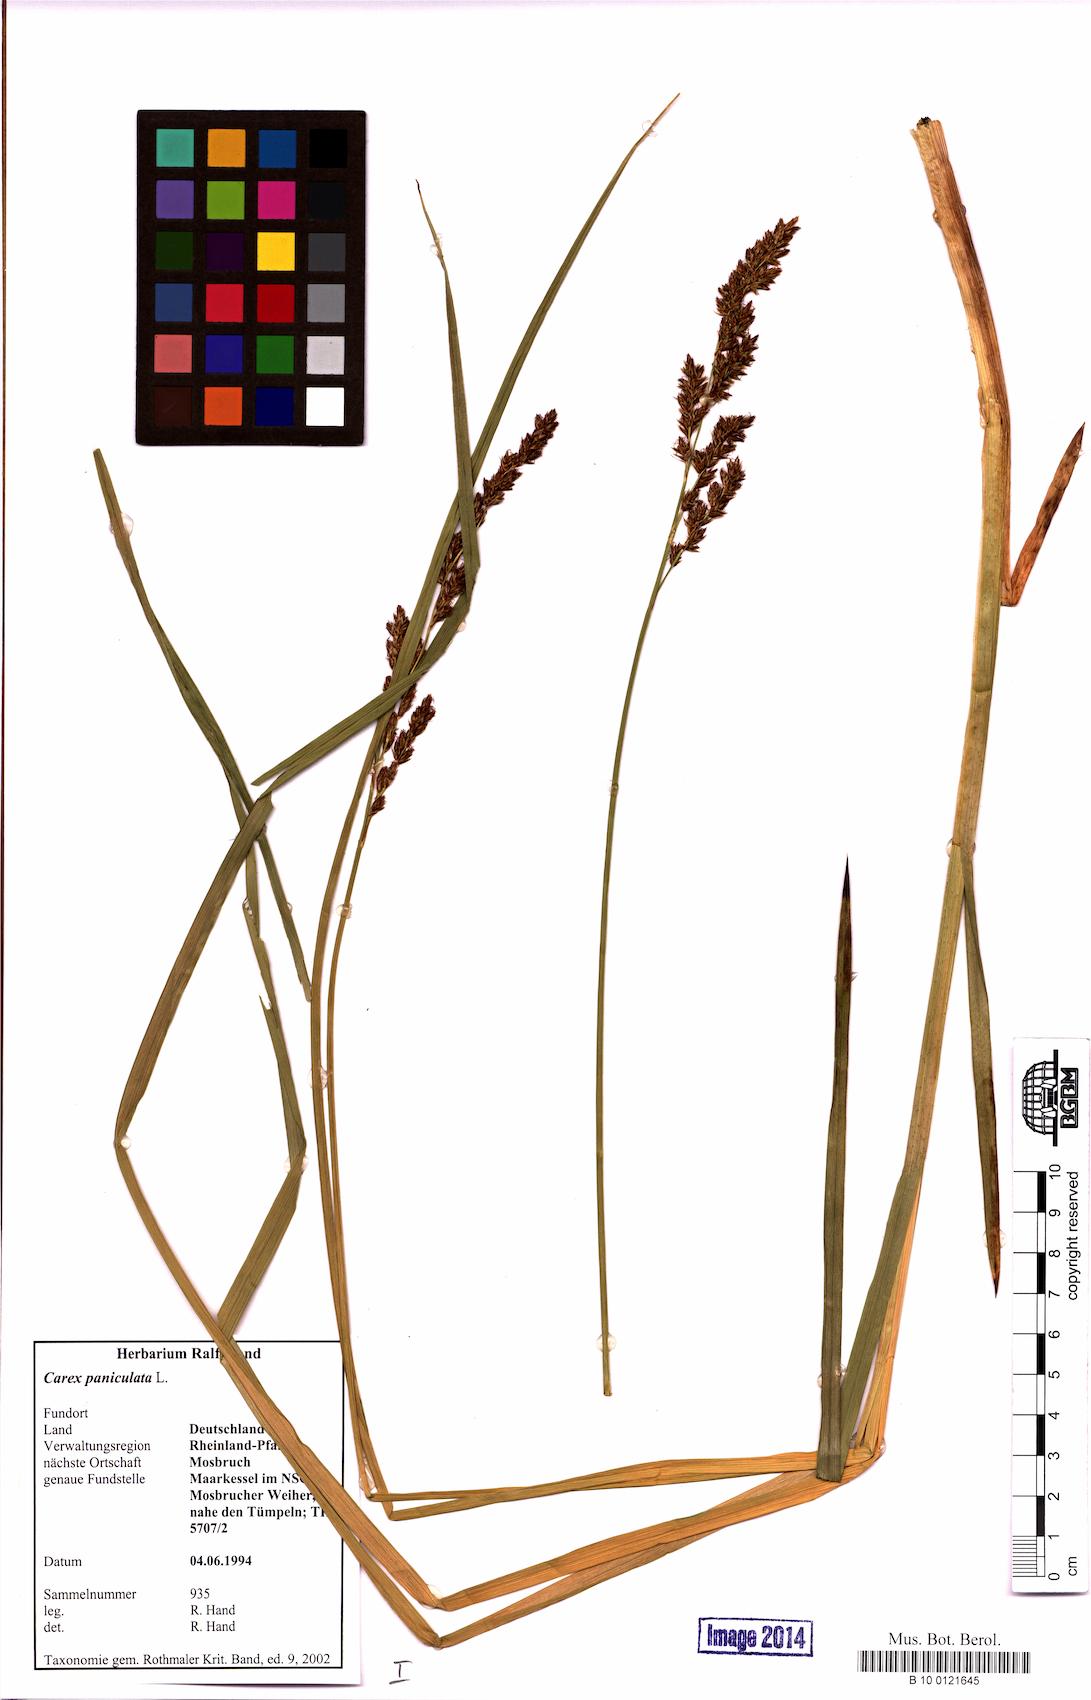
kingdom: Plantae
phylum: Tracheophyta
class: Liliopsida
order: Poales
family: Cyperaceae
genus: Carex
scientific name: Carex paniculata
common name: Greater tussock-sedge
